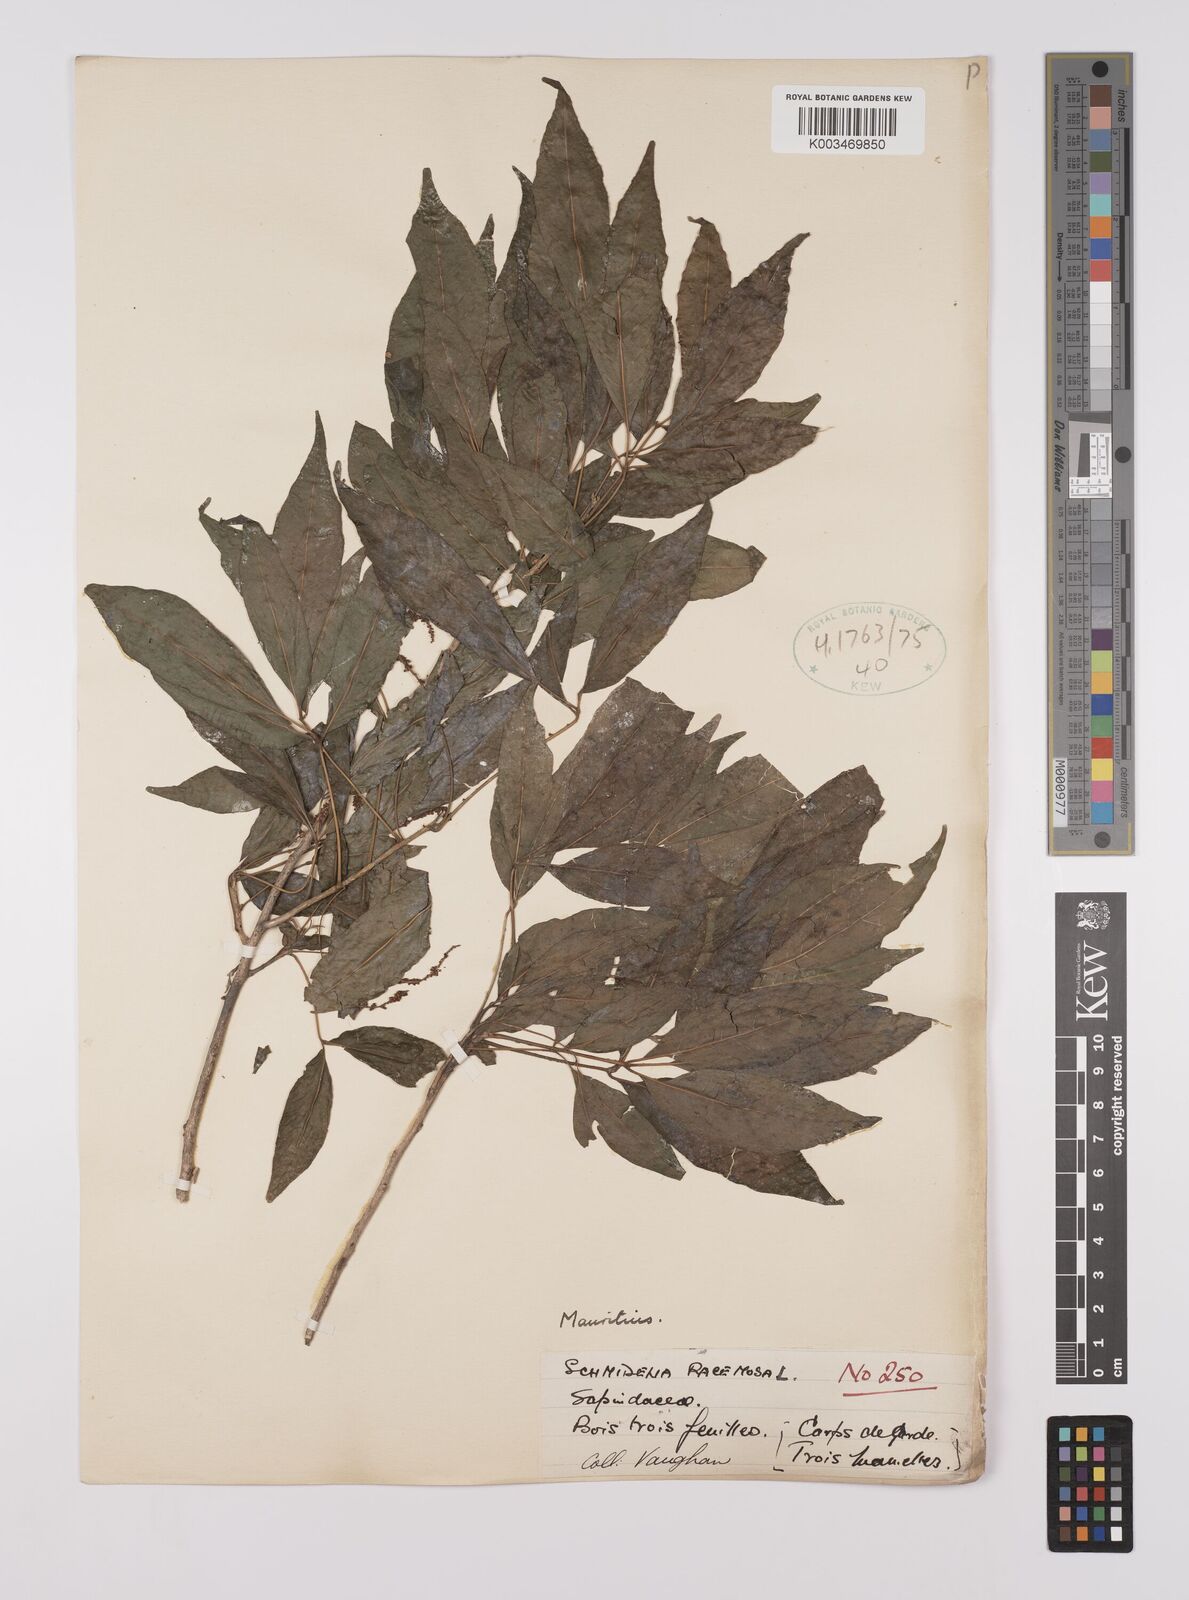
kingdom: Plantae
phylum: Tracheophyta
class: Magnoliopsida
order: Sapindales
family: Sapindaceae
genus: Allophylus
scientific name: Allophylus
